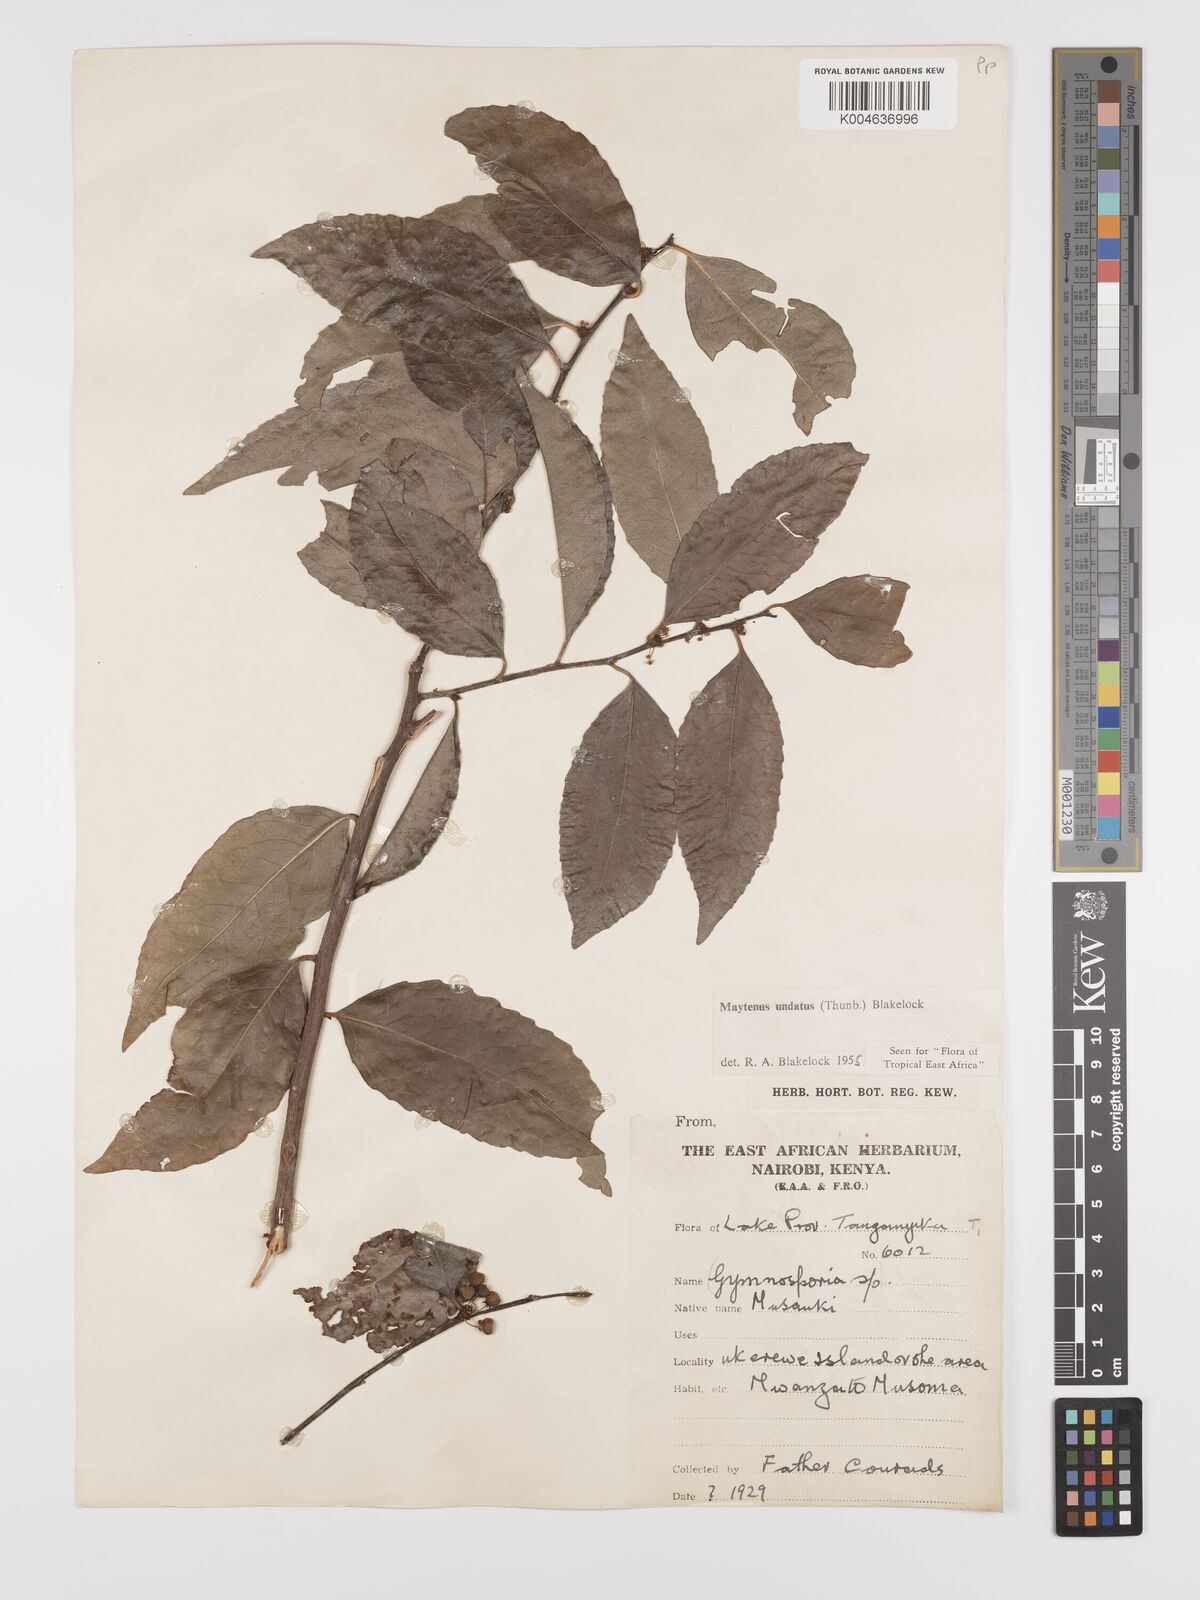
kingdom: Plantae
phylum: Tracheophyta
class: Magnoliopsida
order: Celastrales
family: Celastraceae
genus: Gymnosporia
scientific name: Gymnosporia undata
